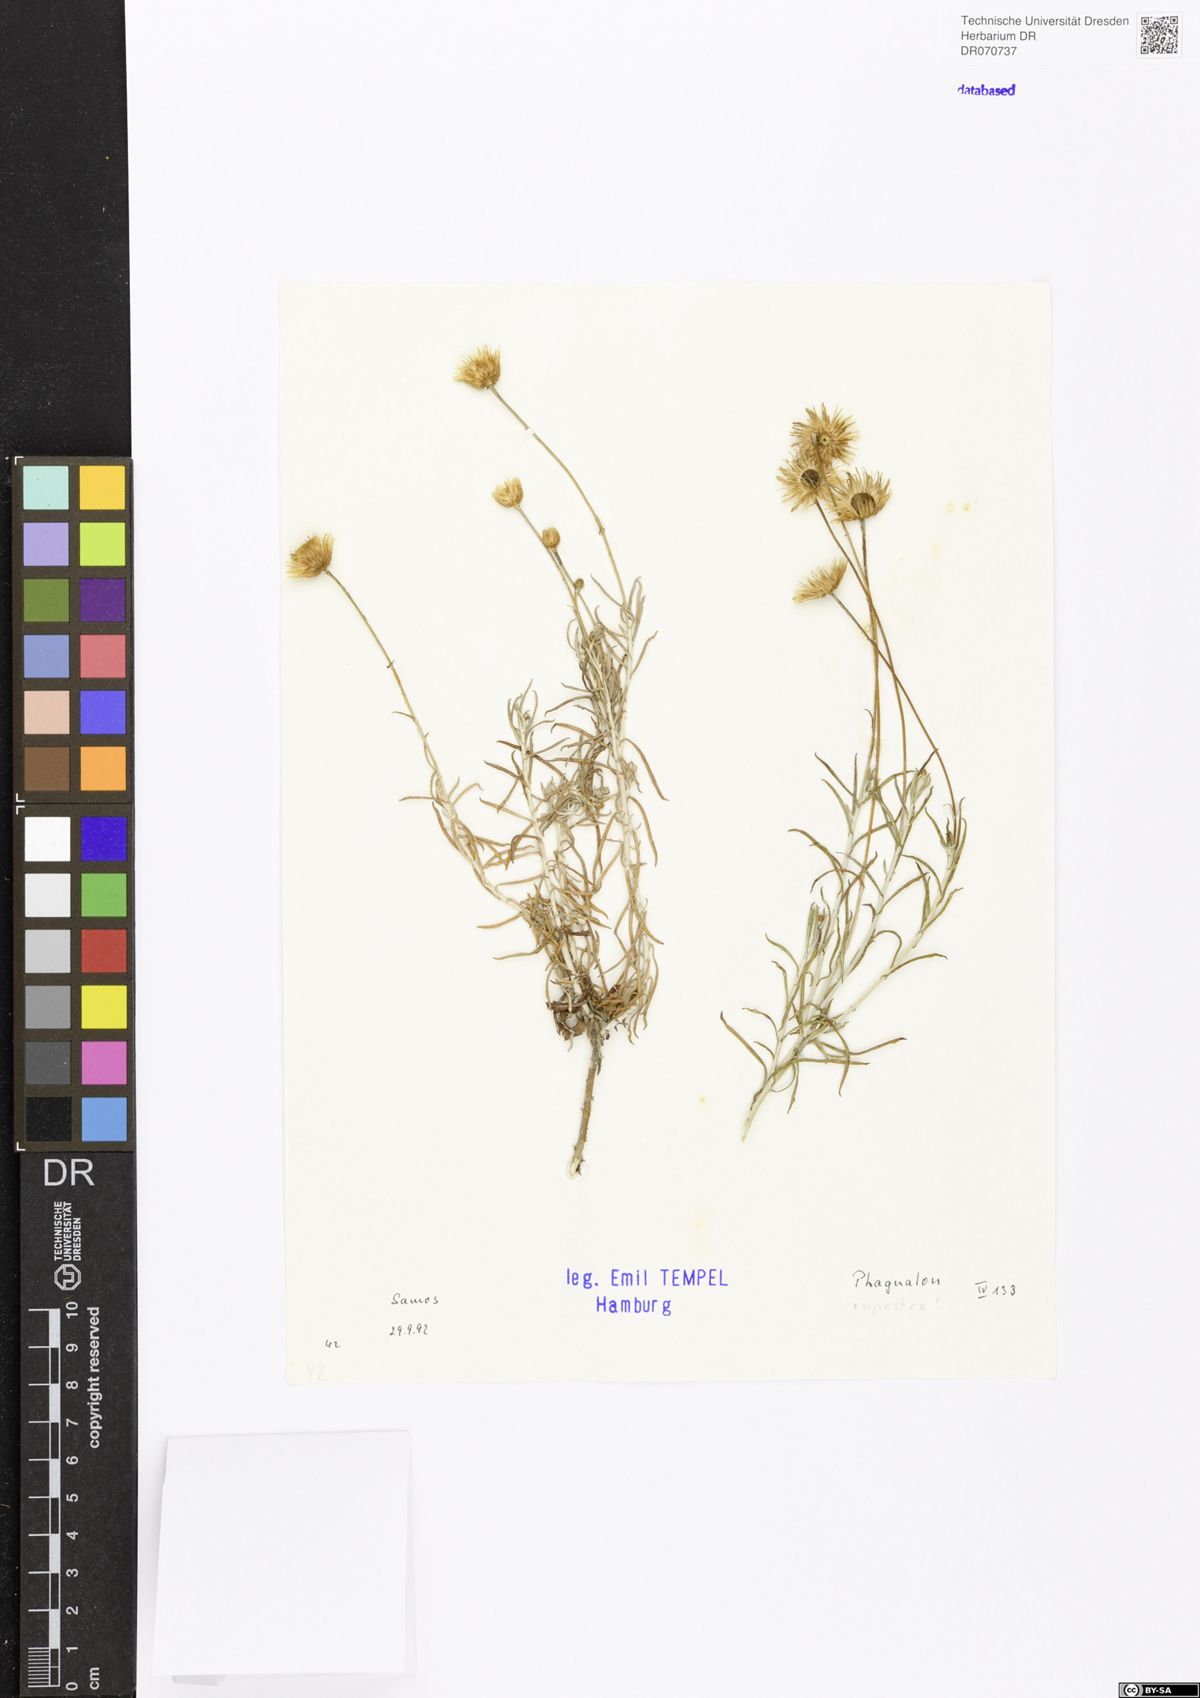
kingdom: Plantae
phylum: Tracheophyta
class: Magnoliopsida
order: Asterales
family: Asteraceae
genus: Phagnalon
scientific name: Phagnalon rupestre
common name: Rock phagnalon
